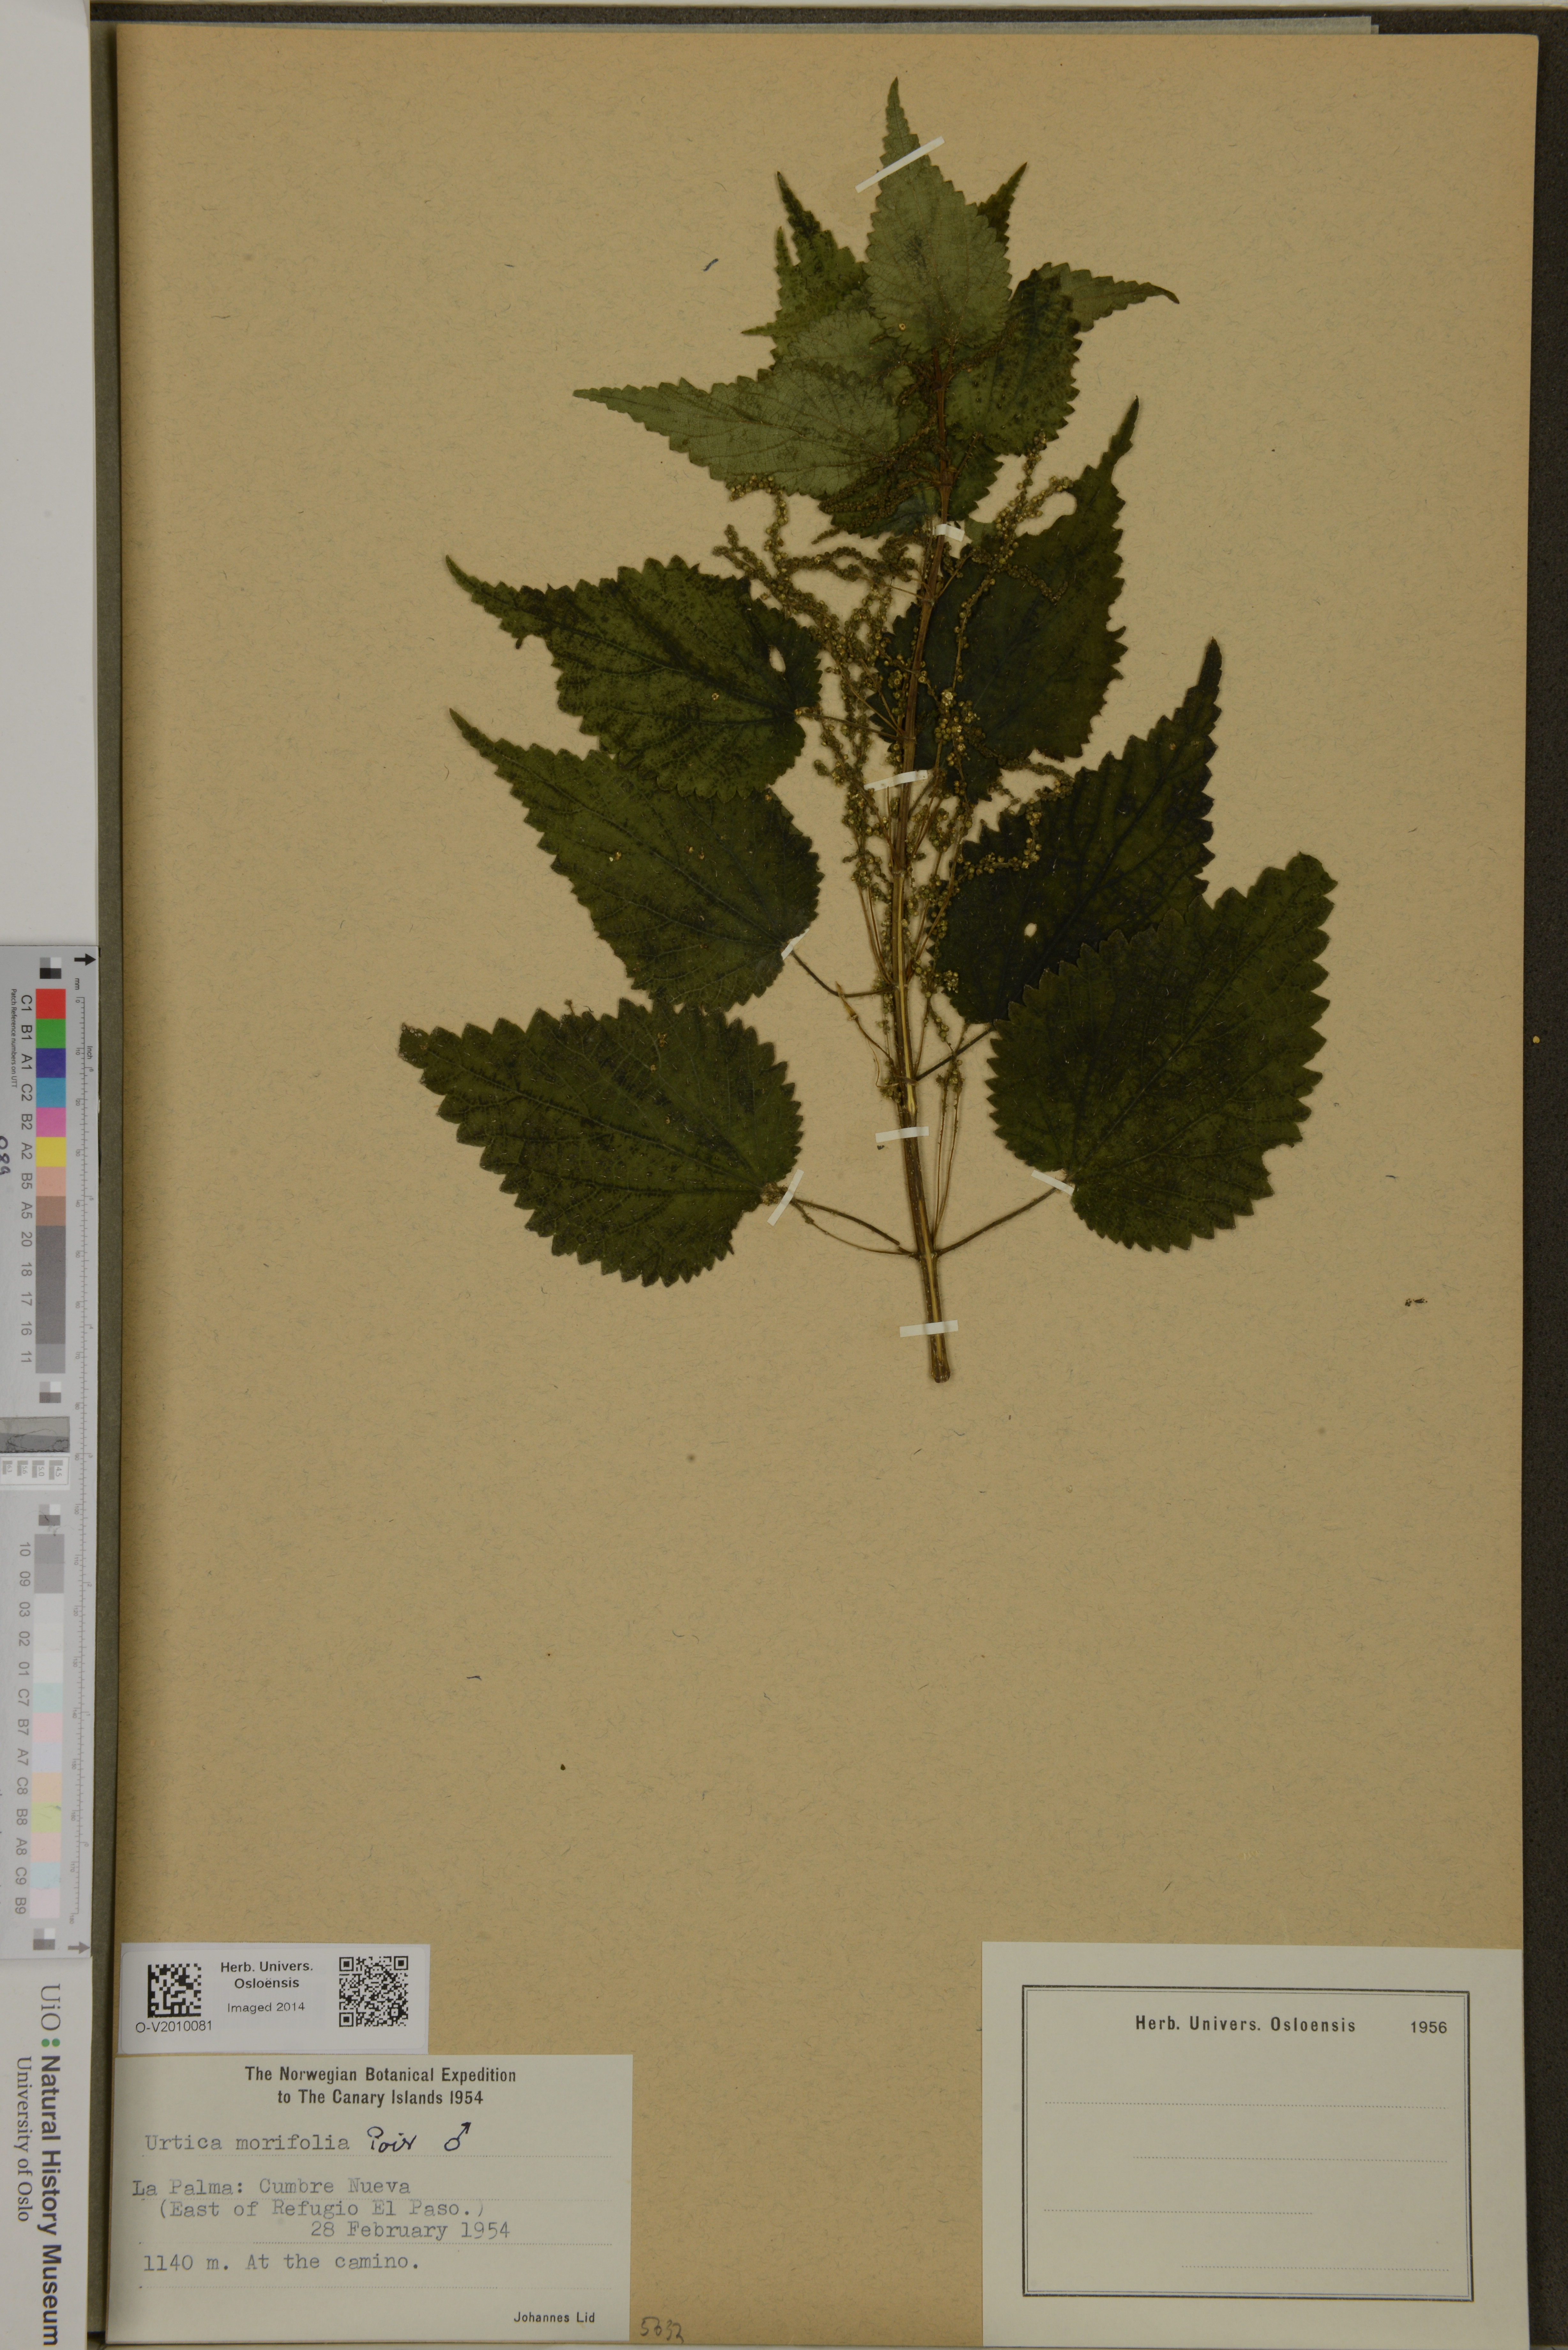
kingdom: Plantae
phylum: Tracheophyta
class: Magnoliopsida
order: Rosales
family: Urticaceae
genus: Urtica
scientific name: Urtica morifolia
